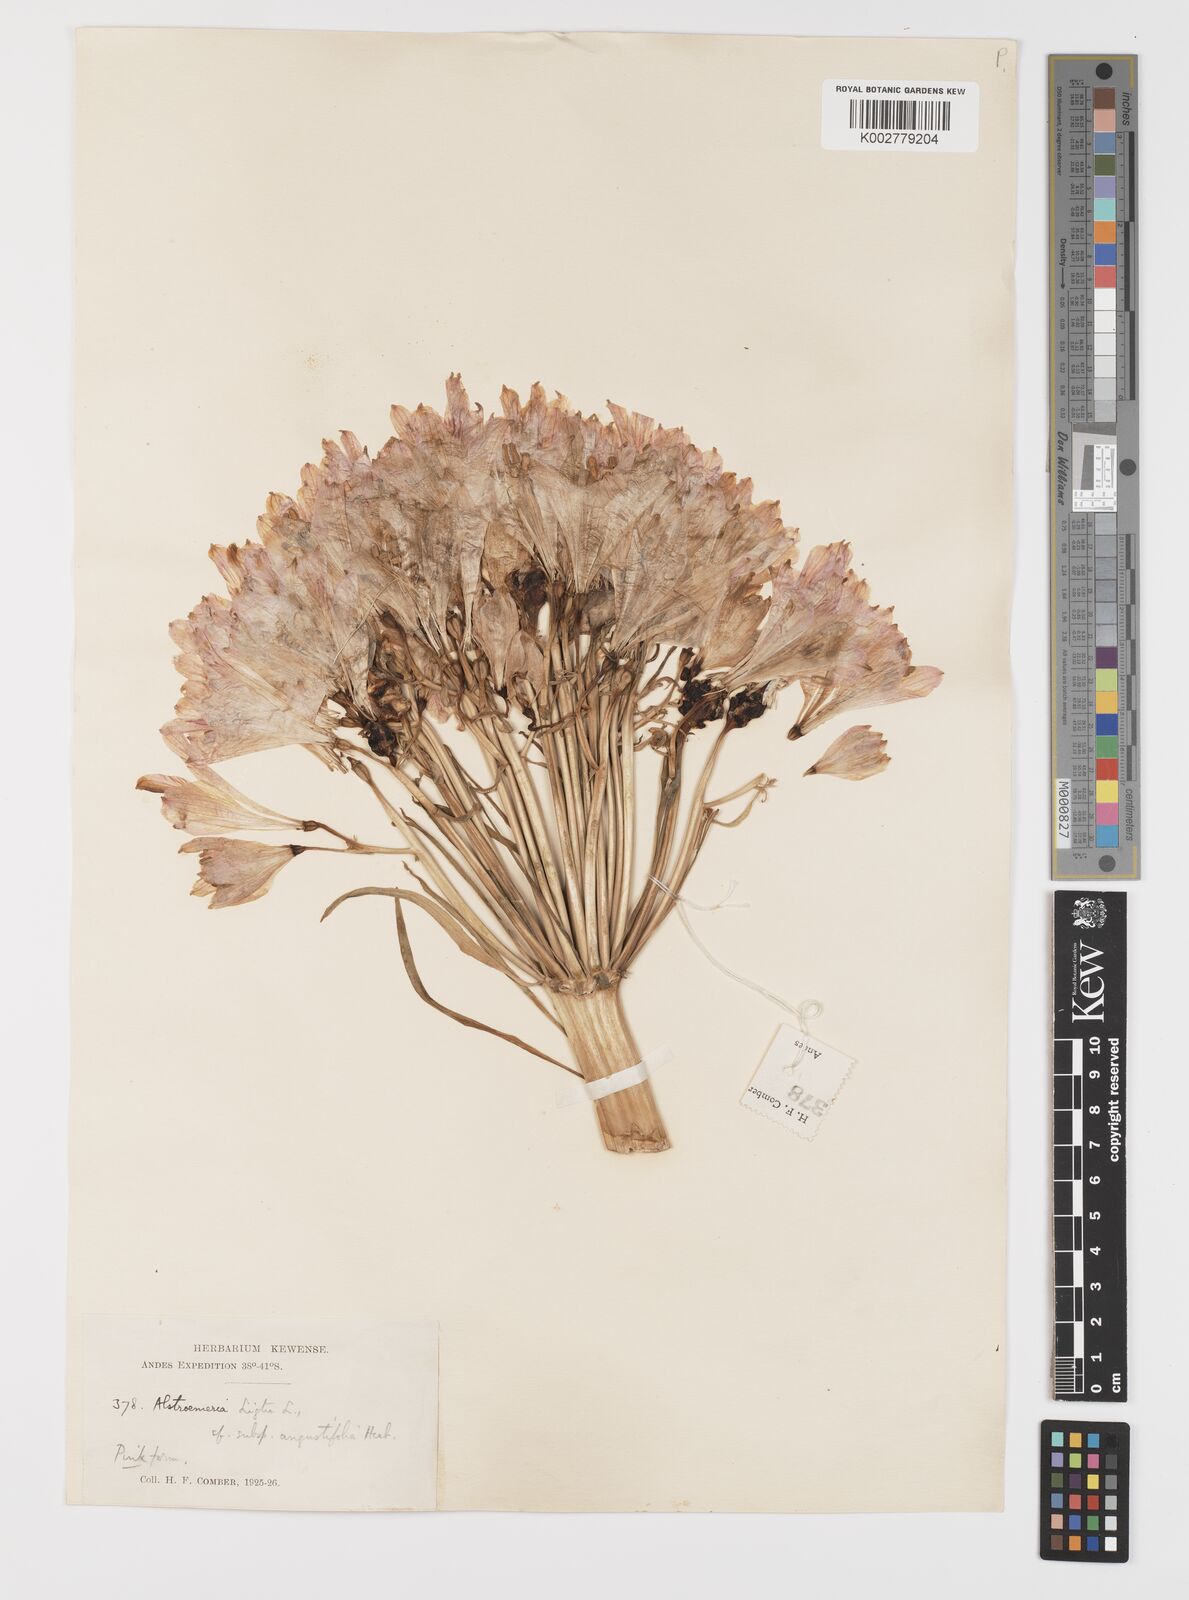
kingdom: Plantae
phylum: Tracheophyta
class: Liliopsida
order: Liliales
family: Alstroemeriaceae
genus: Alstroemeria
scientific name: Alstroemeria angustifolia
